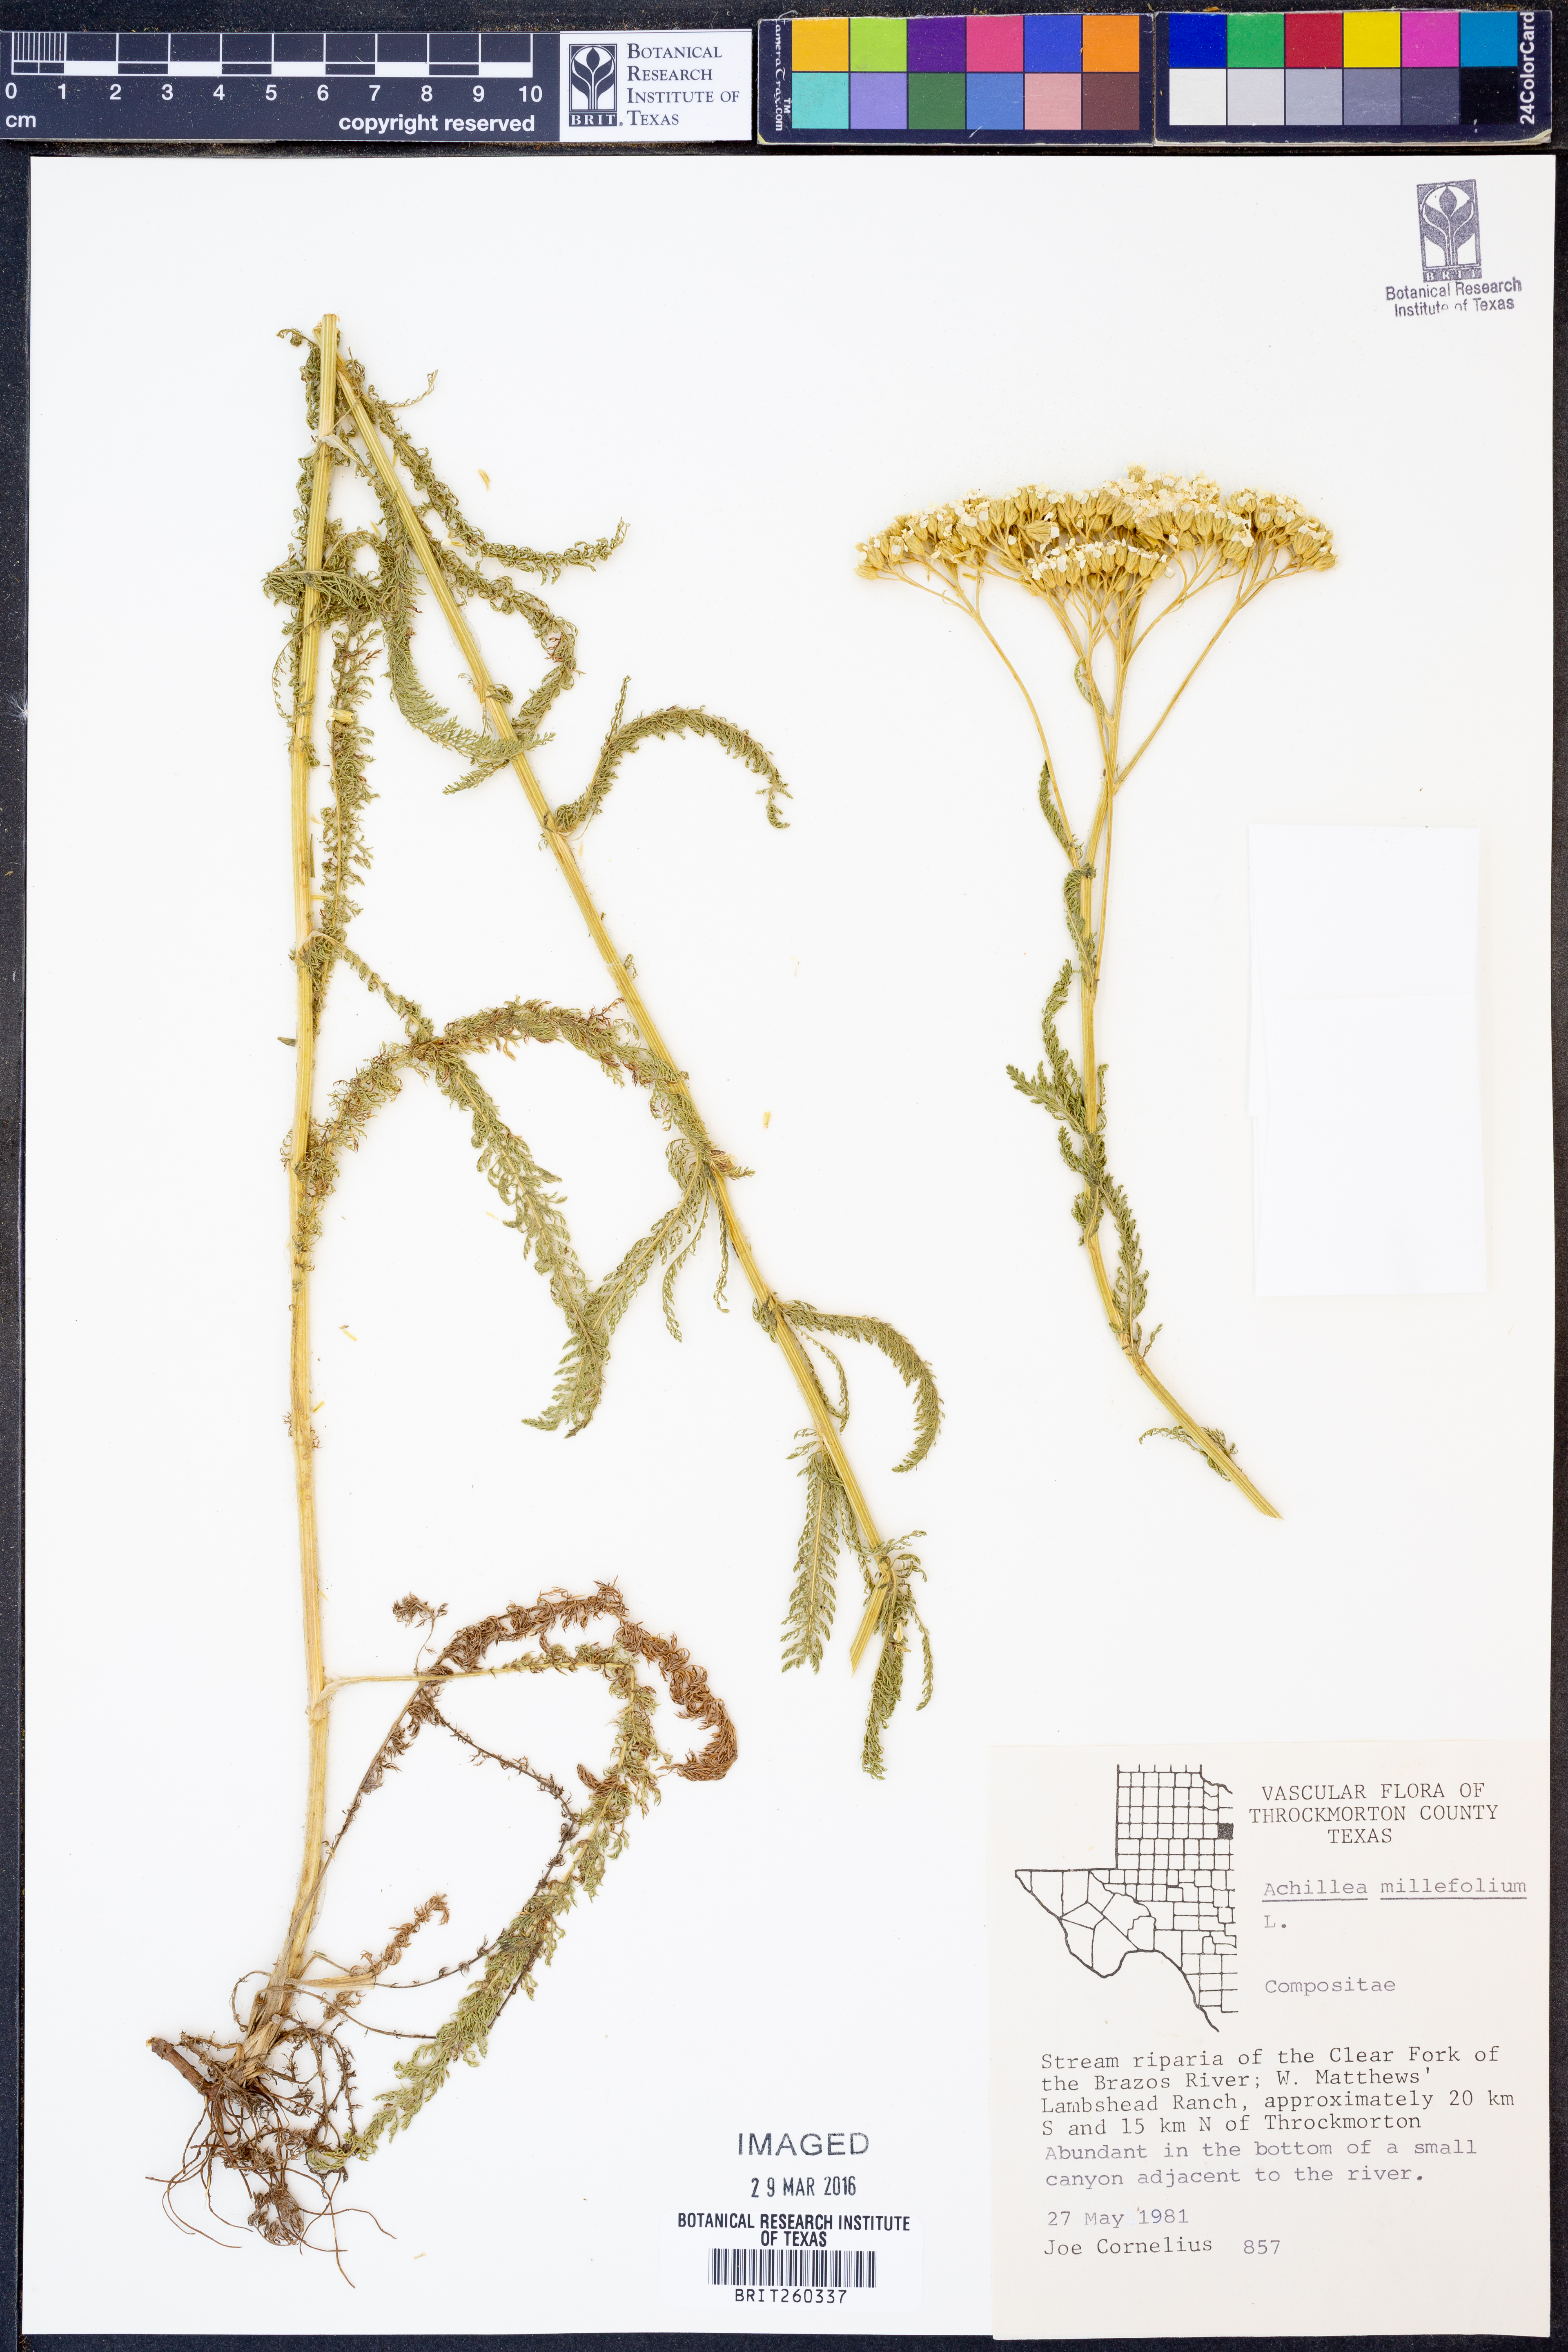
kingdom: Plantae
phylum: Tracheophyta
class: Magnoliopsida
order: Asterales
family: Asteraceae
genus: Achillea
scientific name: Achillea millefolium
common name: Yarrow
